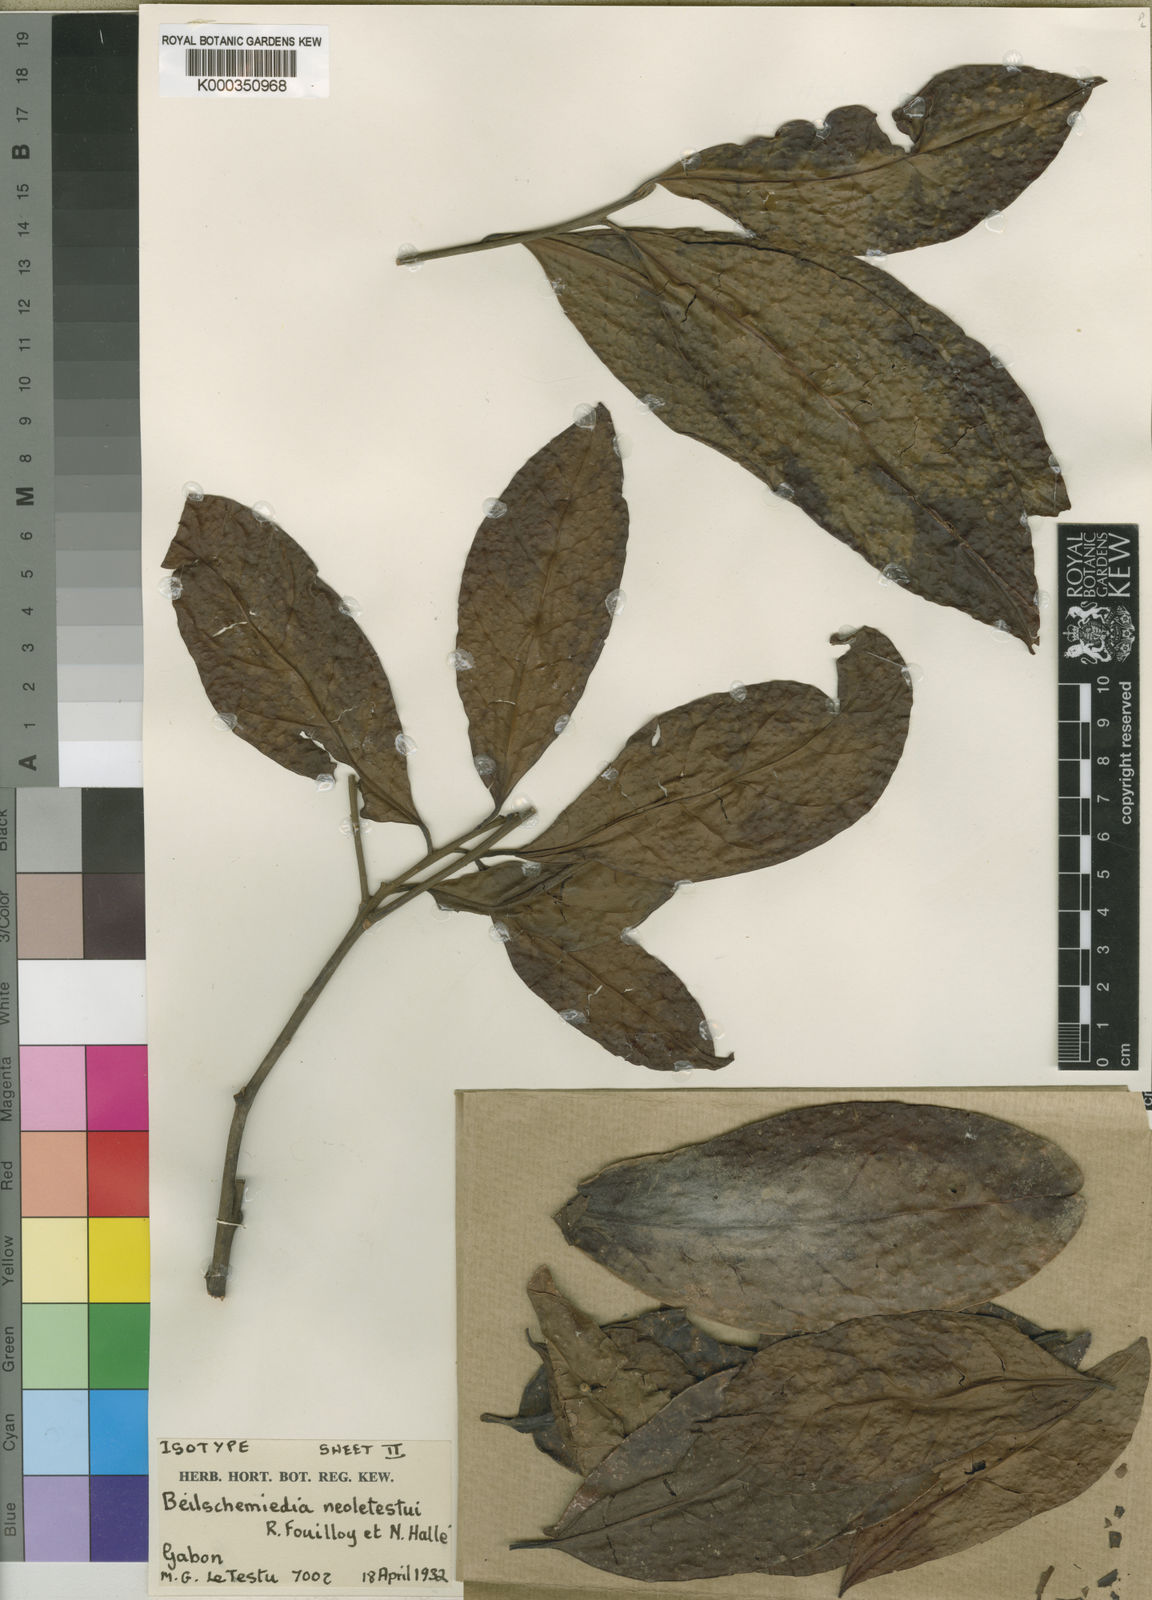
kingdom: Plantae
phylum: Tracheophyta
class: Magnoliopsida
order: Laurales
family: Lauraceae
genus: Beilschmiedia
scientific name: Beilschmiedia
